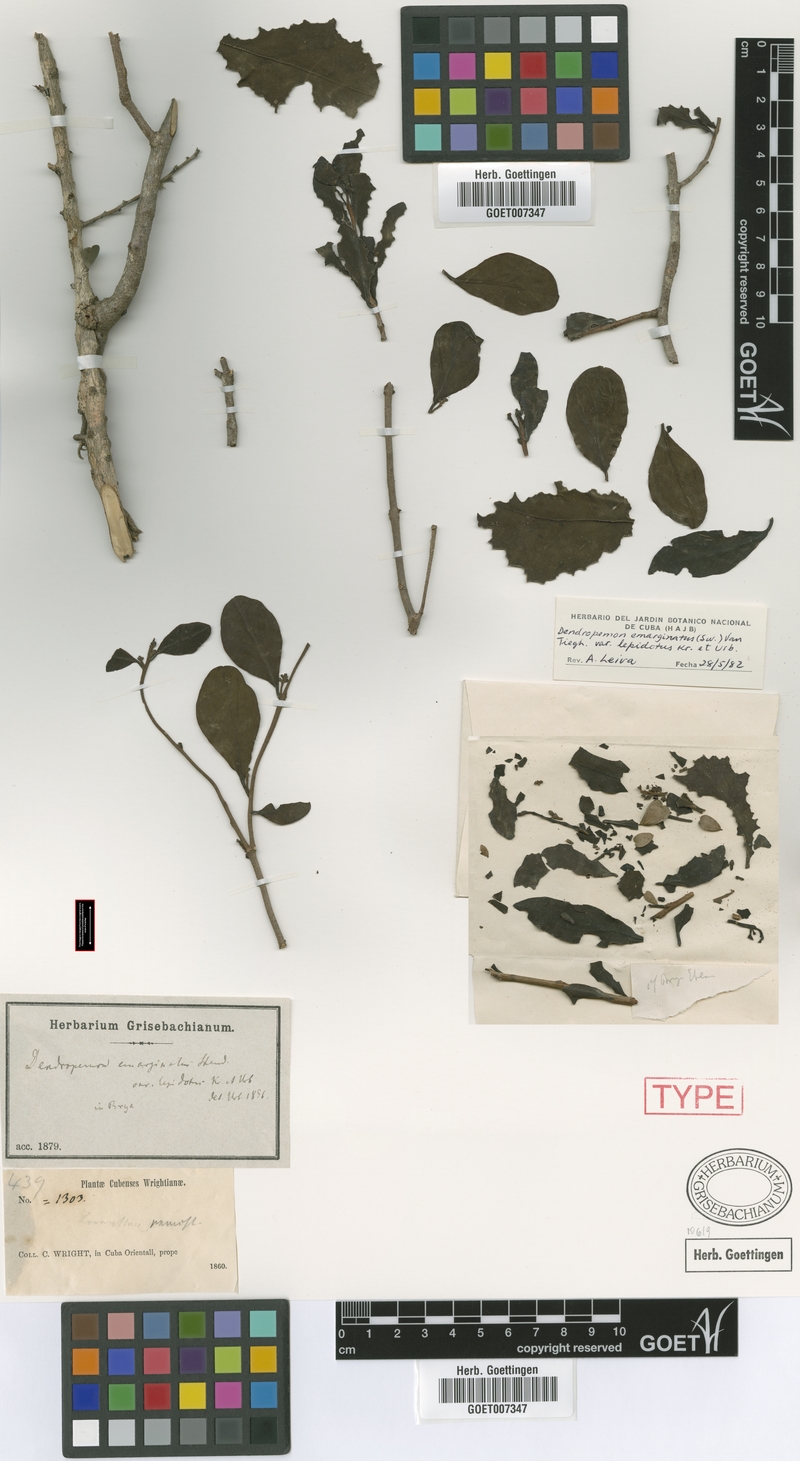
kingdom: Plantae
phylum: Tracheophyta
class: Magnoliopsida
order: Santalales
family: Loranthaceae
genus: Dendropemon
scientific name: Dendropemon lepidotus
